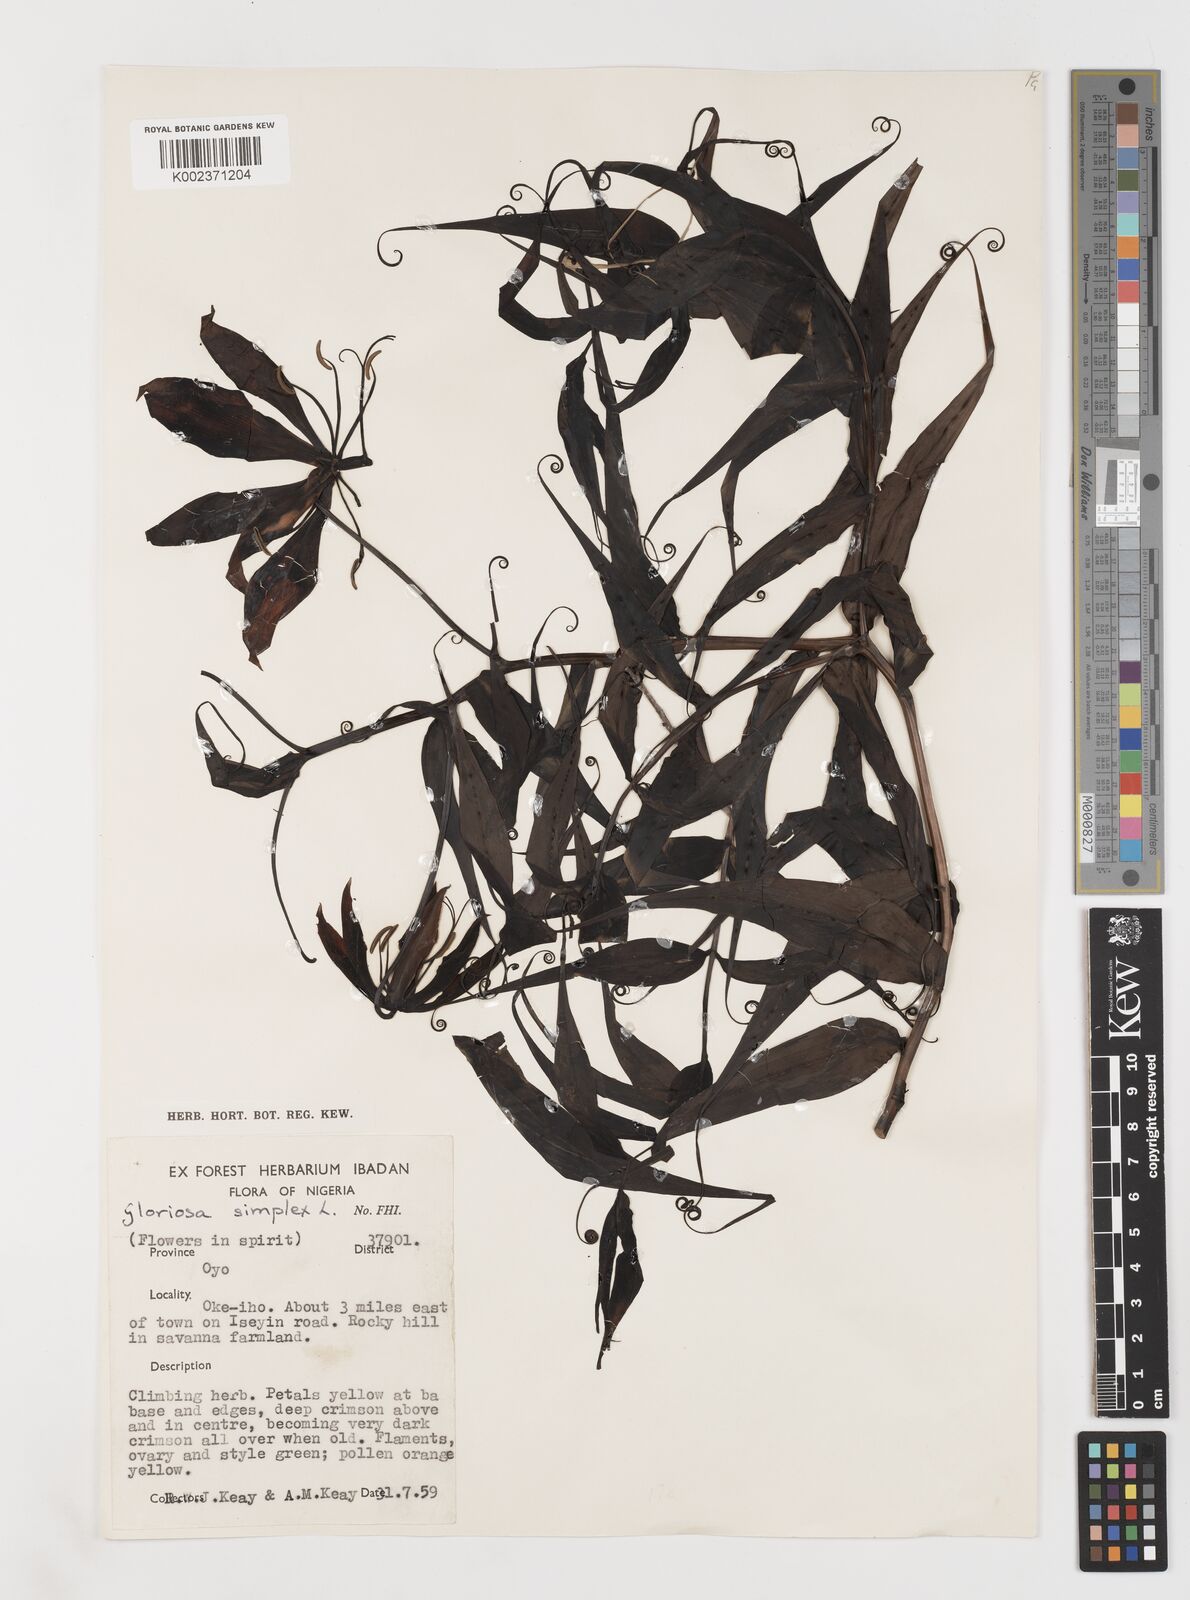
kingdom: Plantae
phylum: Tracheophyta
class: Liliopsida
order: Liliales
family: Colchicaceae
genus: Gloriosa
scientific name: Gloriosa simplex
